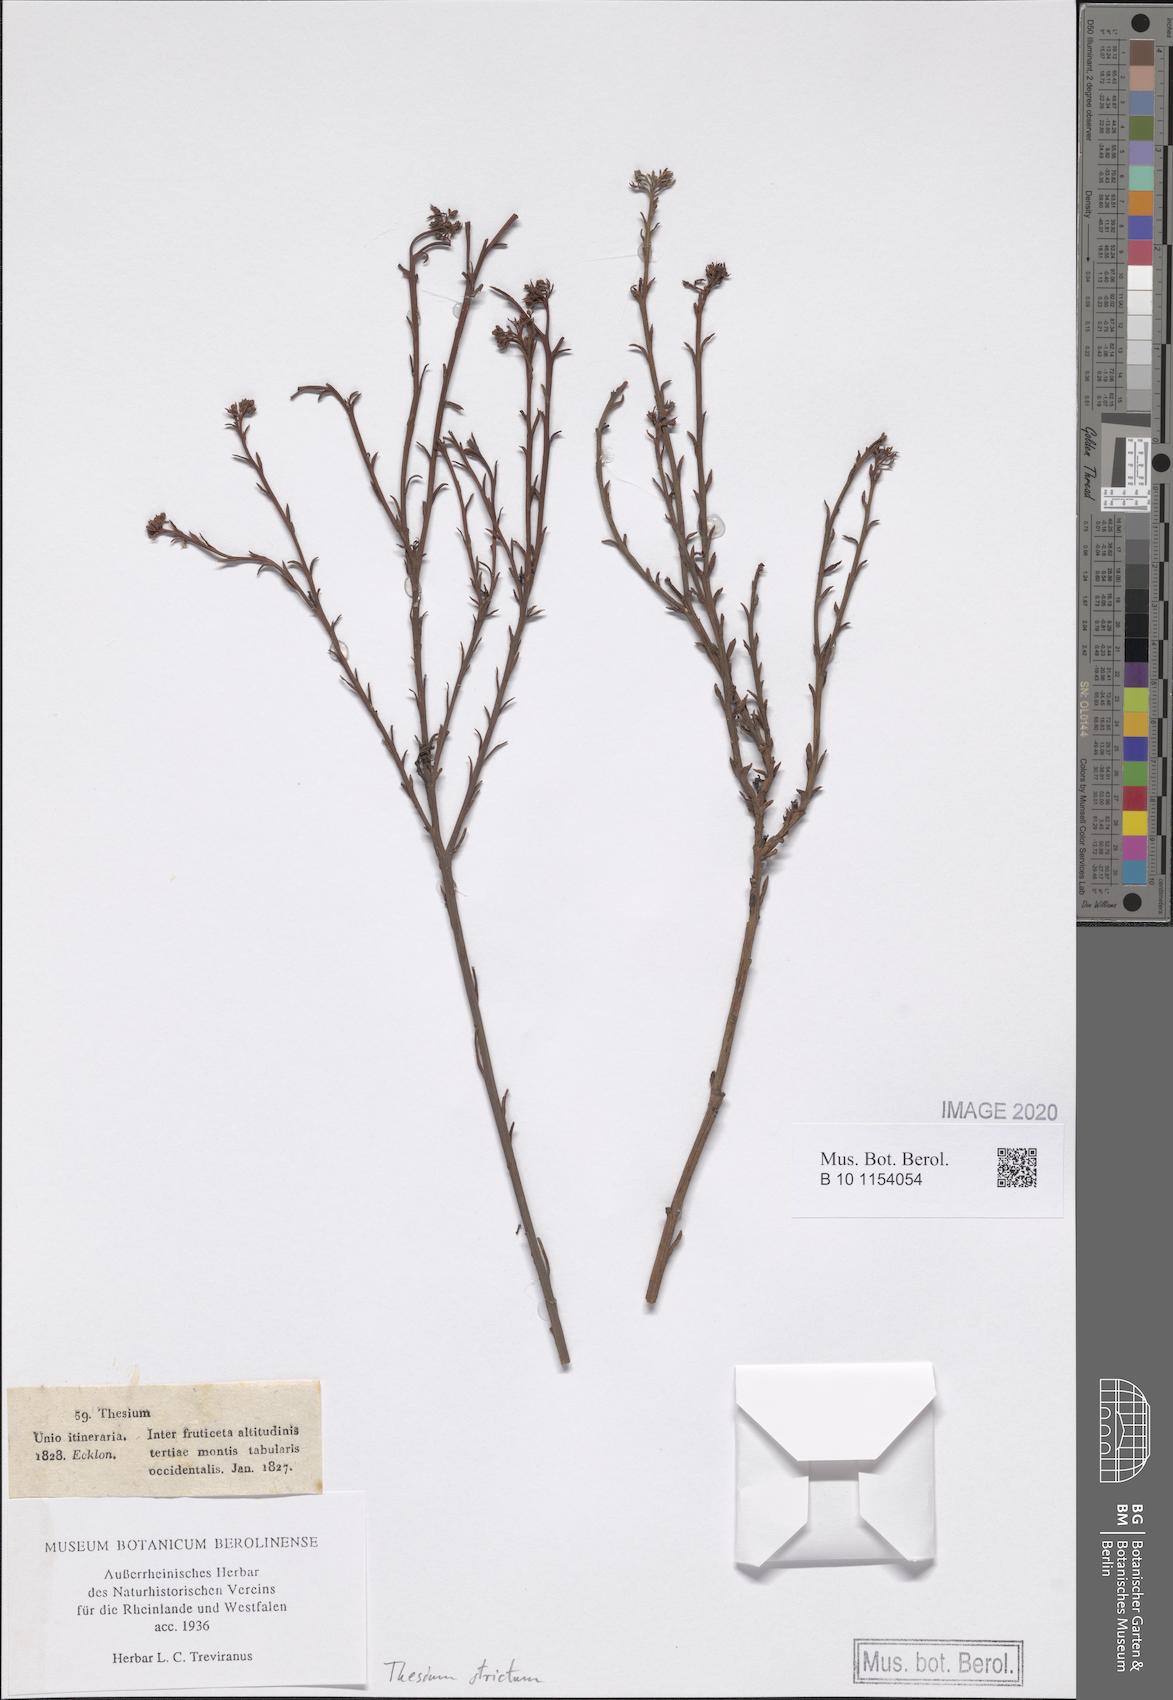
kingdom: Plantae
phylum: Tracheophyta
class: Magnoliopsida
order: Santalales
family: Thesiaceae
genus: Thesium
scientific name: Thesium strictum
